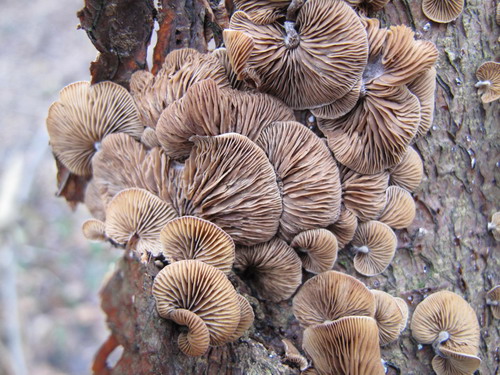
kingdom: Fungi
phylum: Basidiomycota
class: Agaricomycetes
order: Agaricales
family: Strophariaceae
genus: Deconica
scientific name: Deconica horizontalis
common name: ved-stråhat
